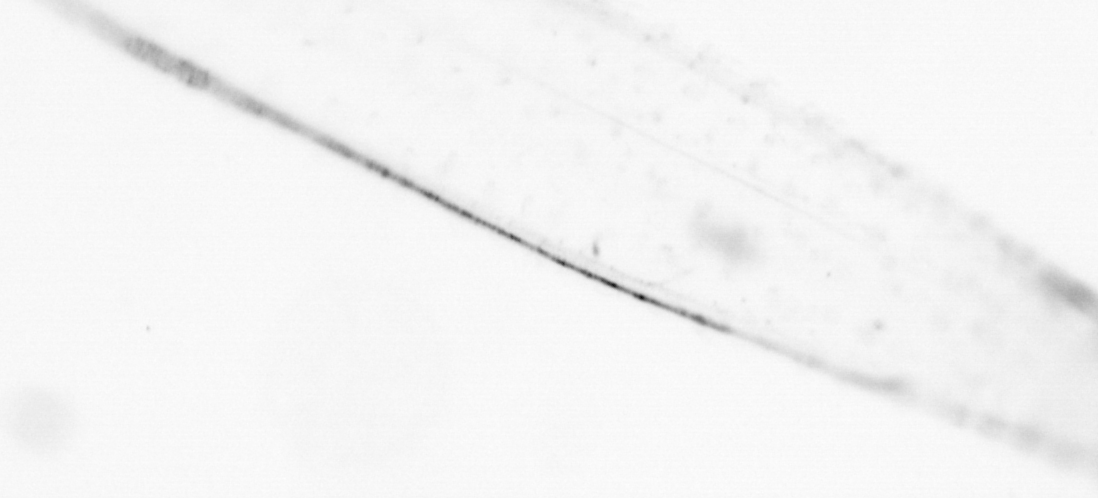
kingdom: Animalia
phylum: Chaetognatha
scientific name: Chaetognatha
